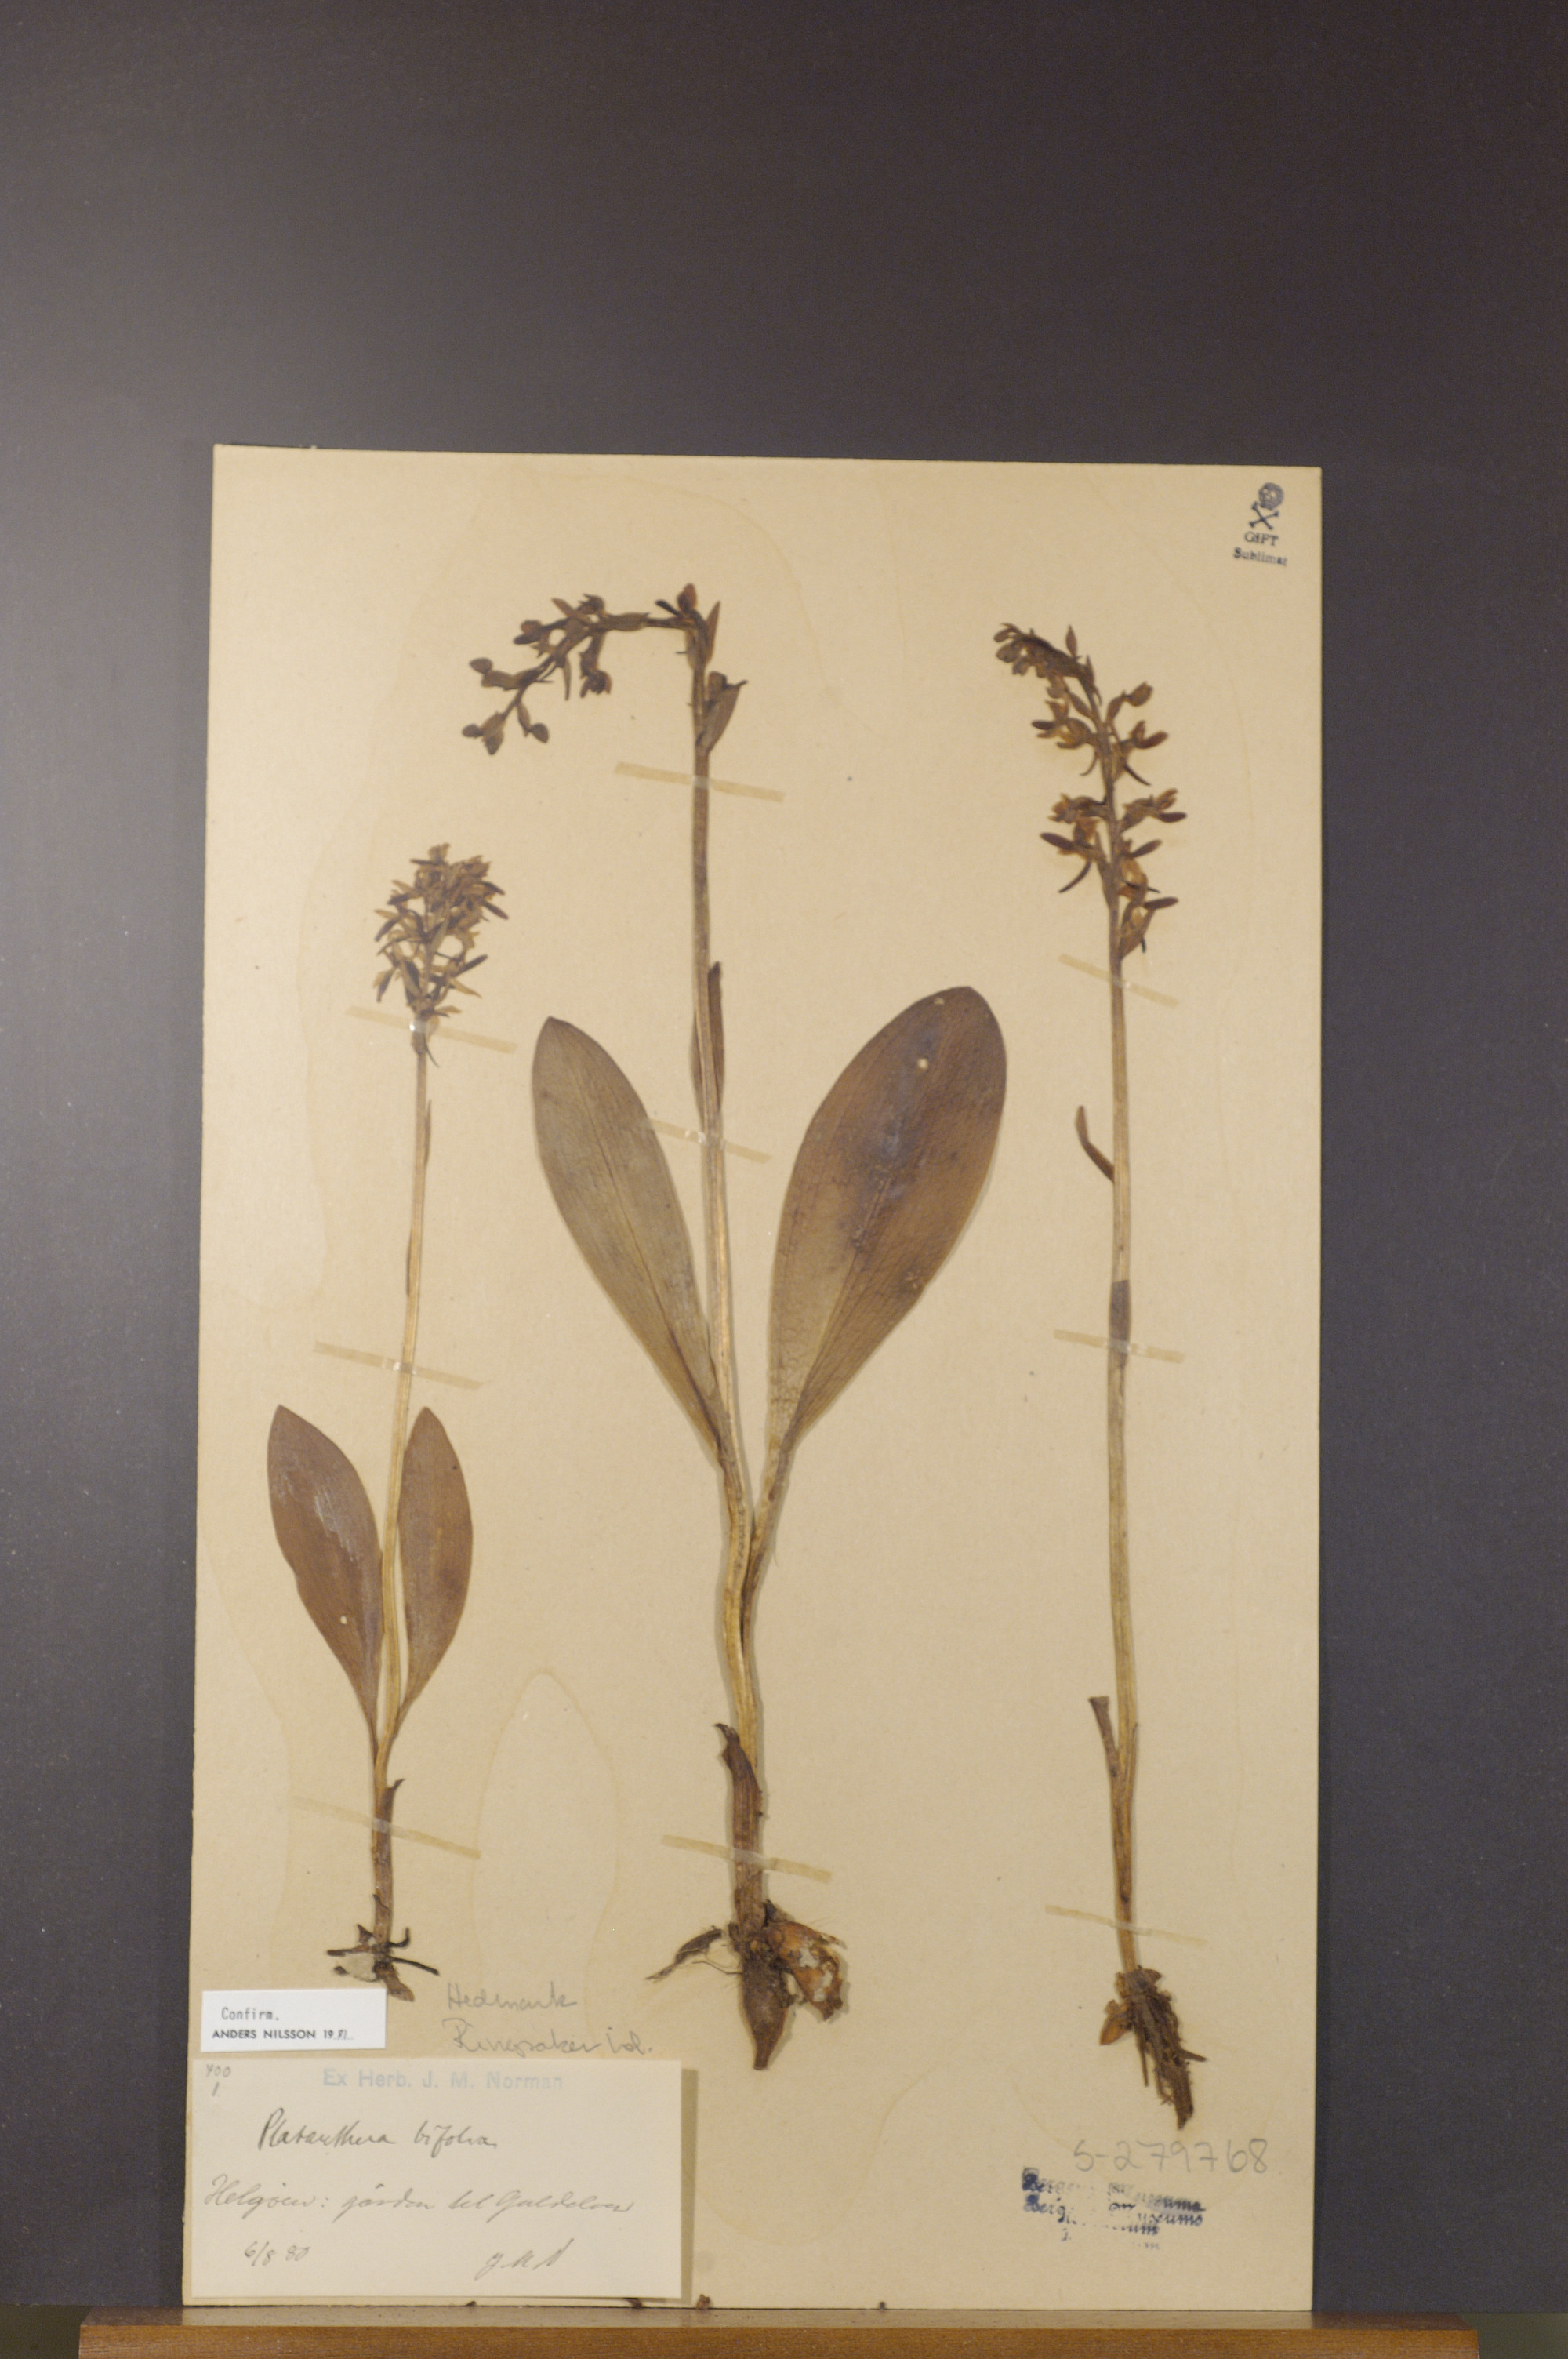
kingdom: Plantae
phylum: Tracheophyta
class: Liliopsida
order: Asparagales
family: Orchidaceae
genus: Platanthera
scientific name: Platanthera bifolia
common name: Lesser butterfly-orchid
